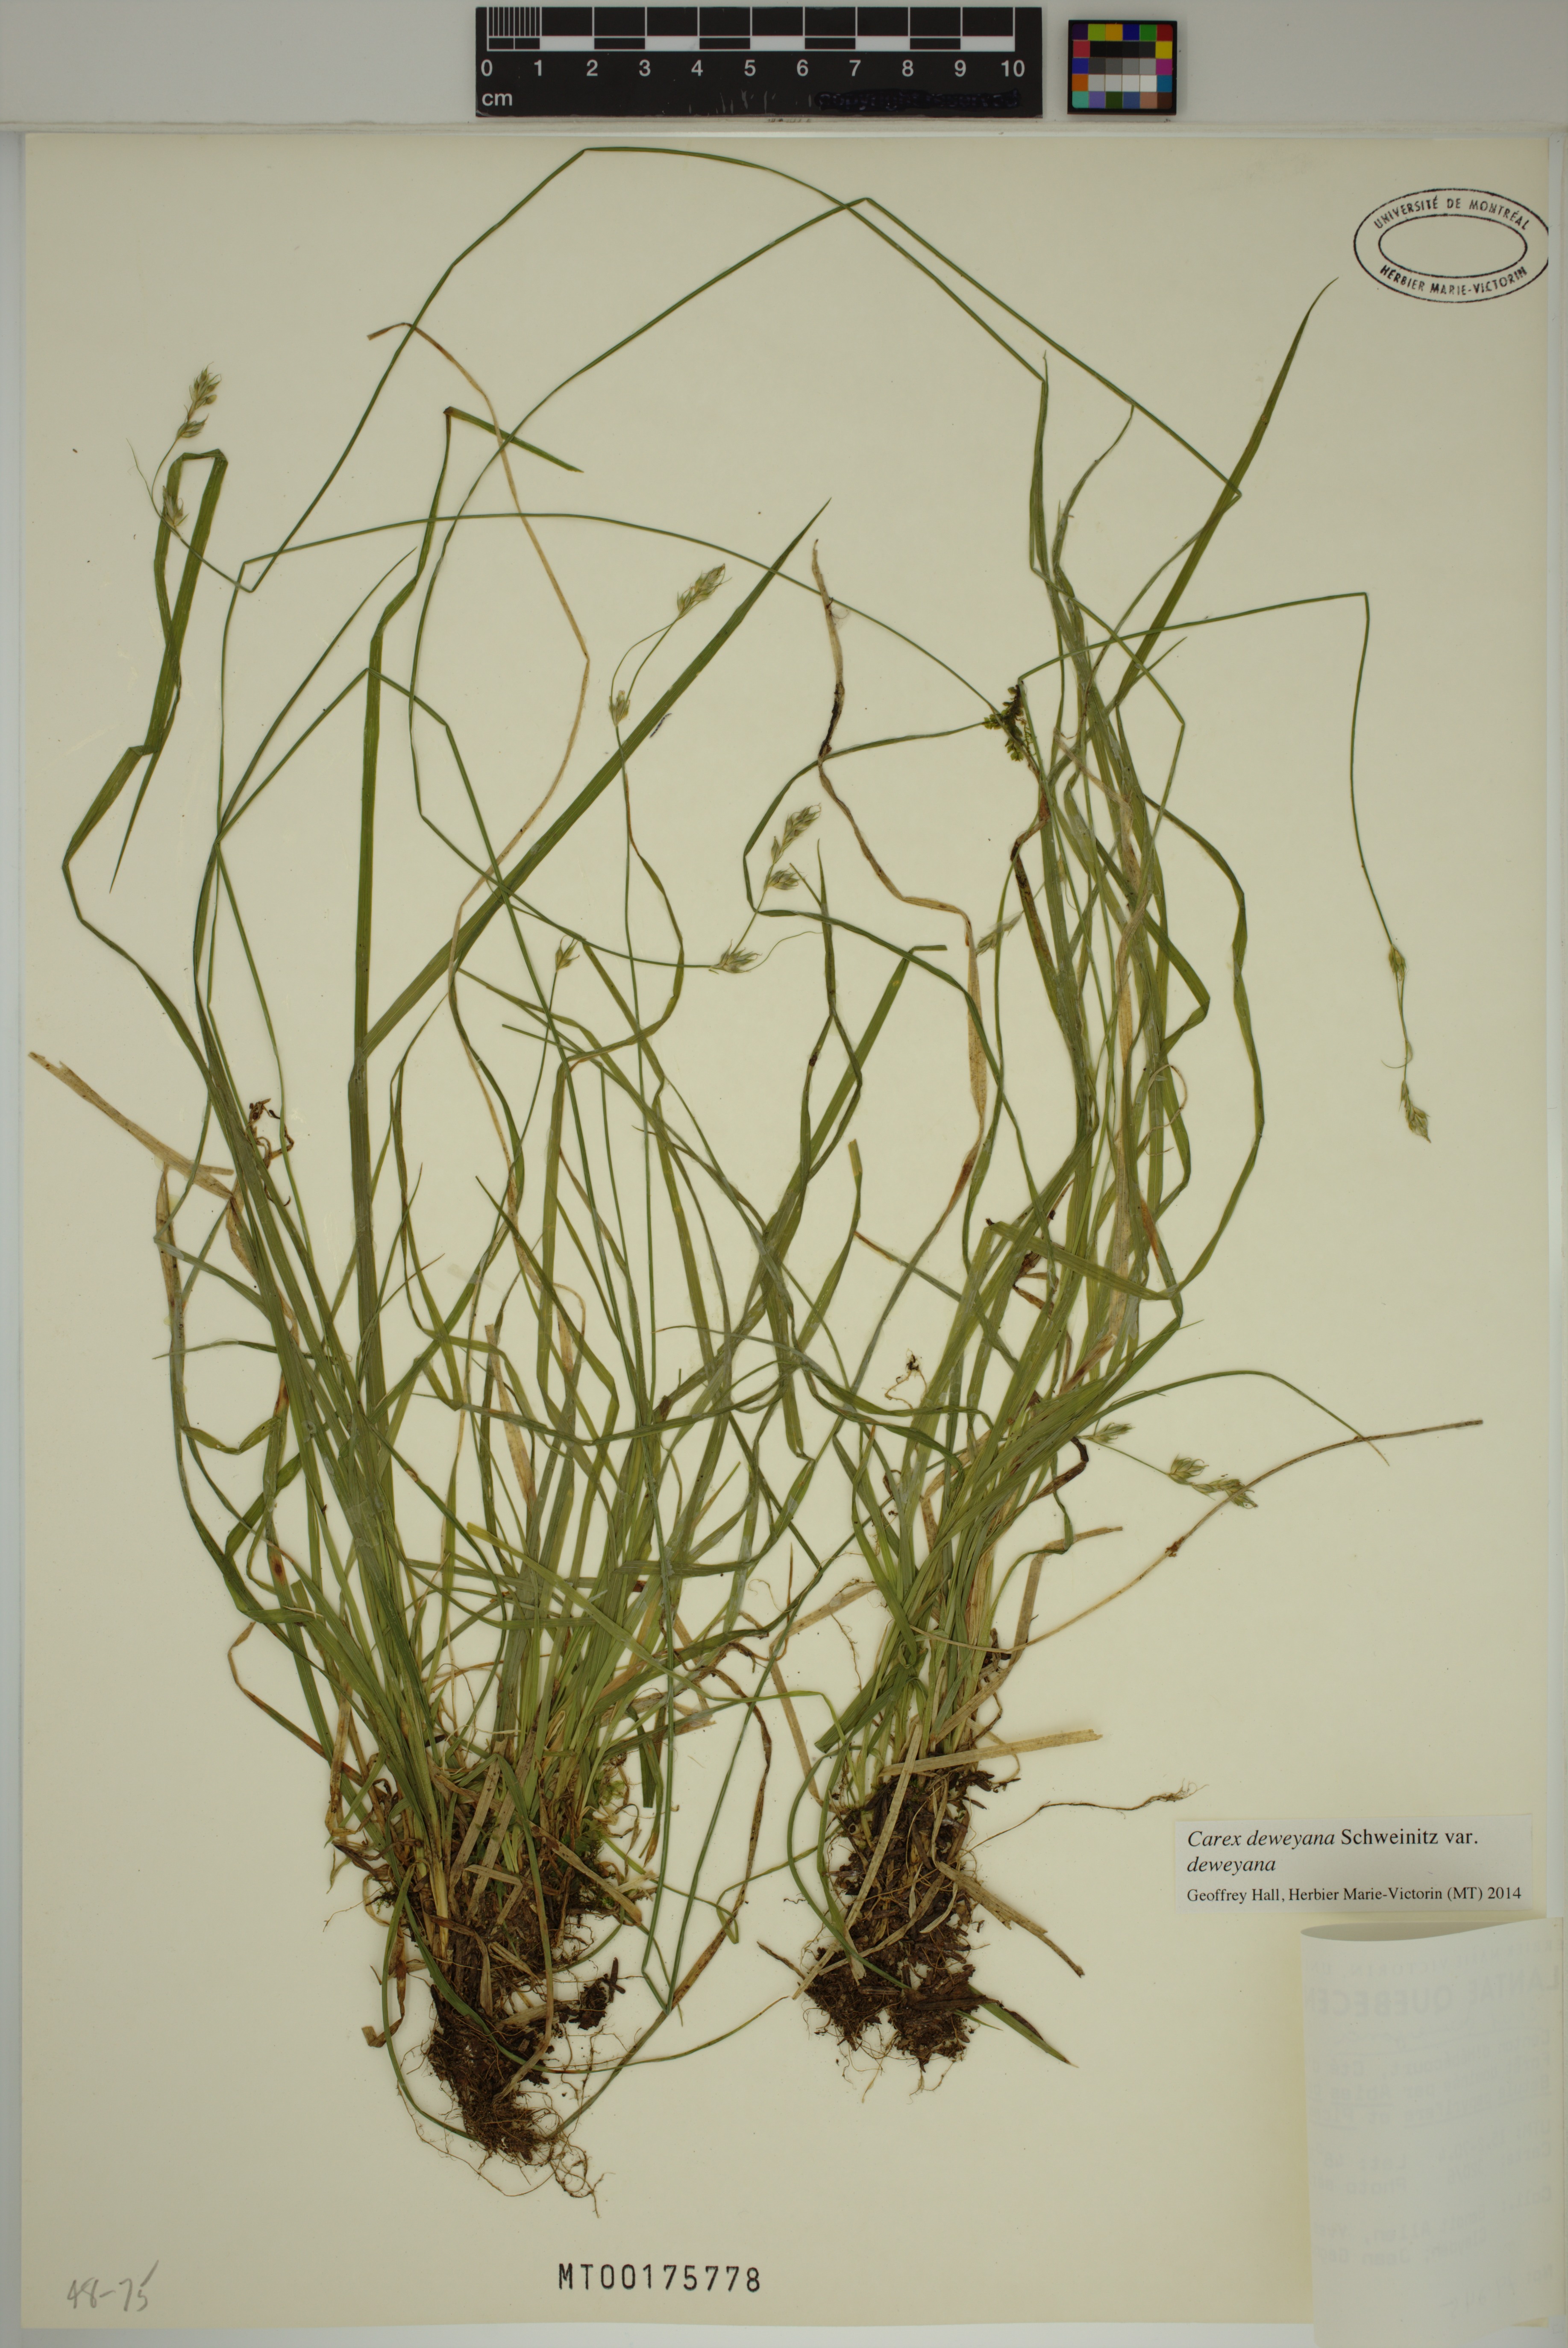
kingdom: Plantae
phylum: Tracheophyta
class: Liliopsida
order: Poales
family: Cyperaceae
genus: Carex
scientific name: Carex deweyana
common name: Dewey's sedge
